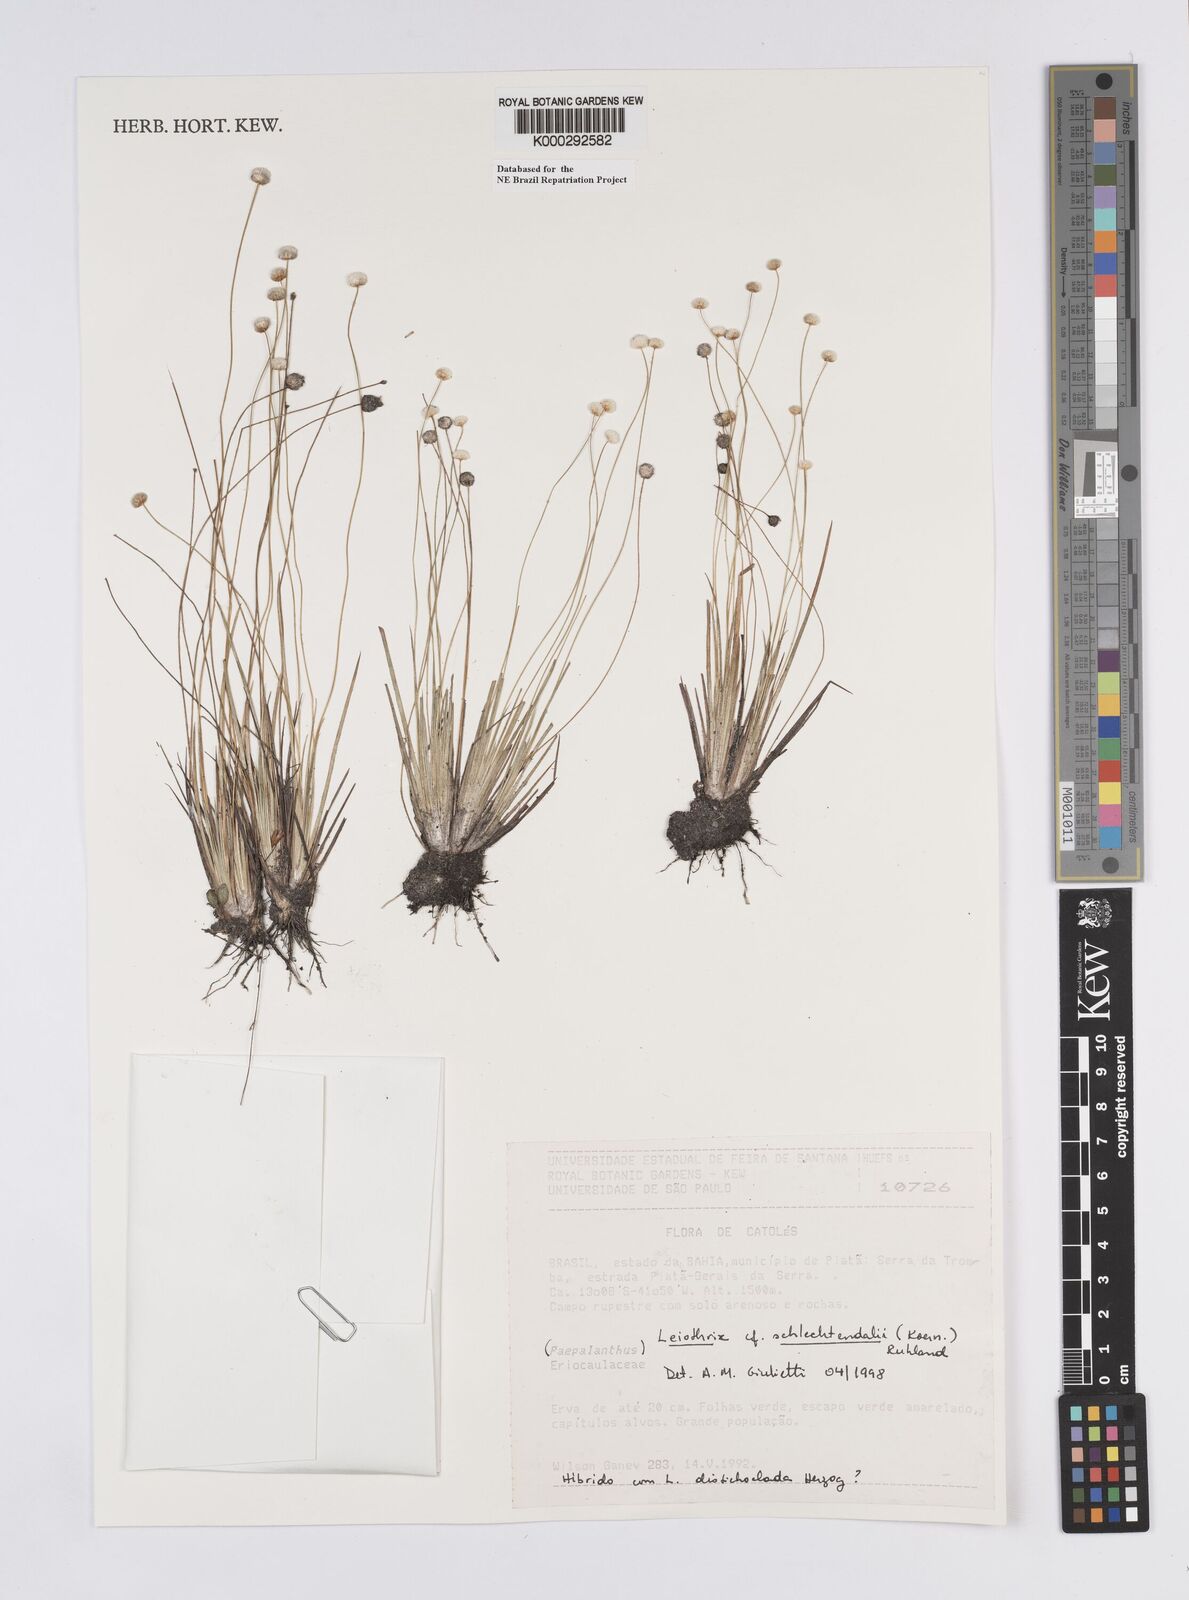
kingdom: Plantae
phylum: Tracheophyta
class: Liliopsida
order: Poales
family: Eriocaulaceae
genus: Leiothrix
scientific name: Leiothrix schlechtendalii
